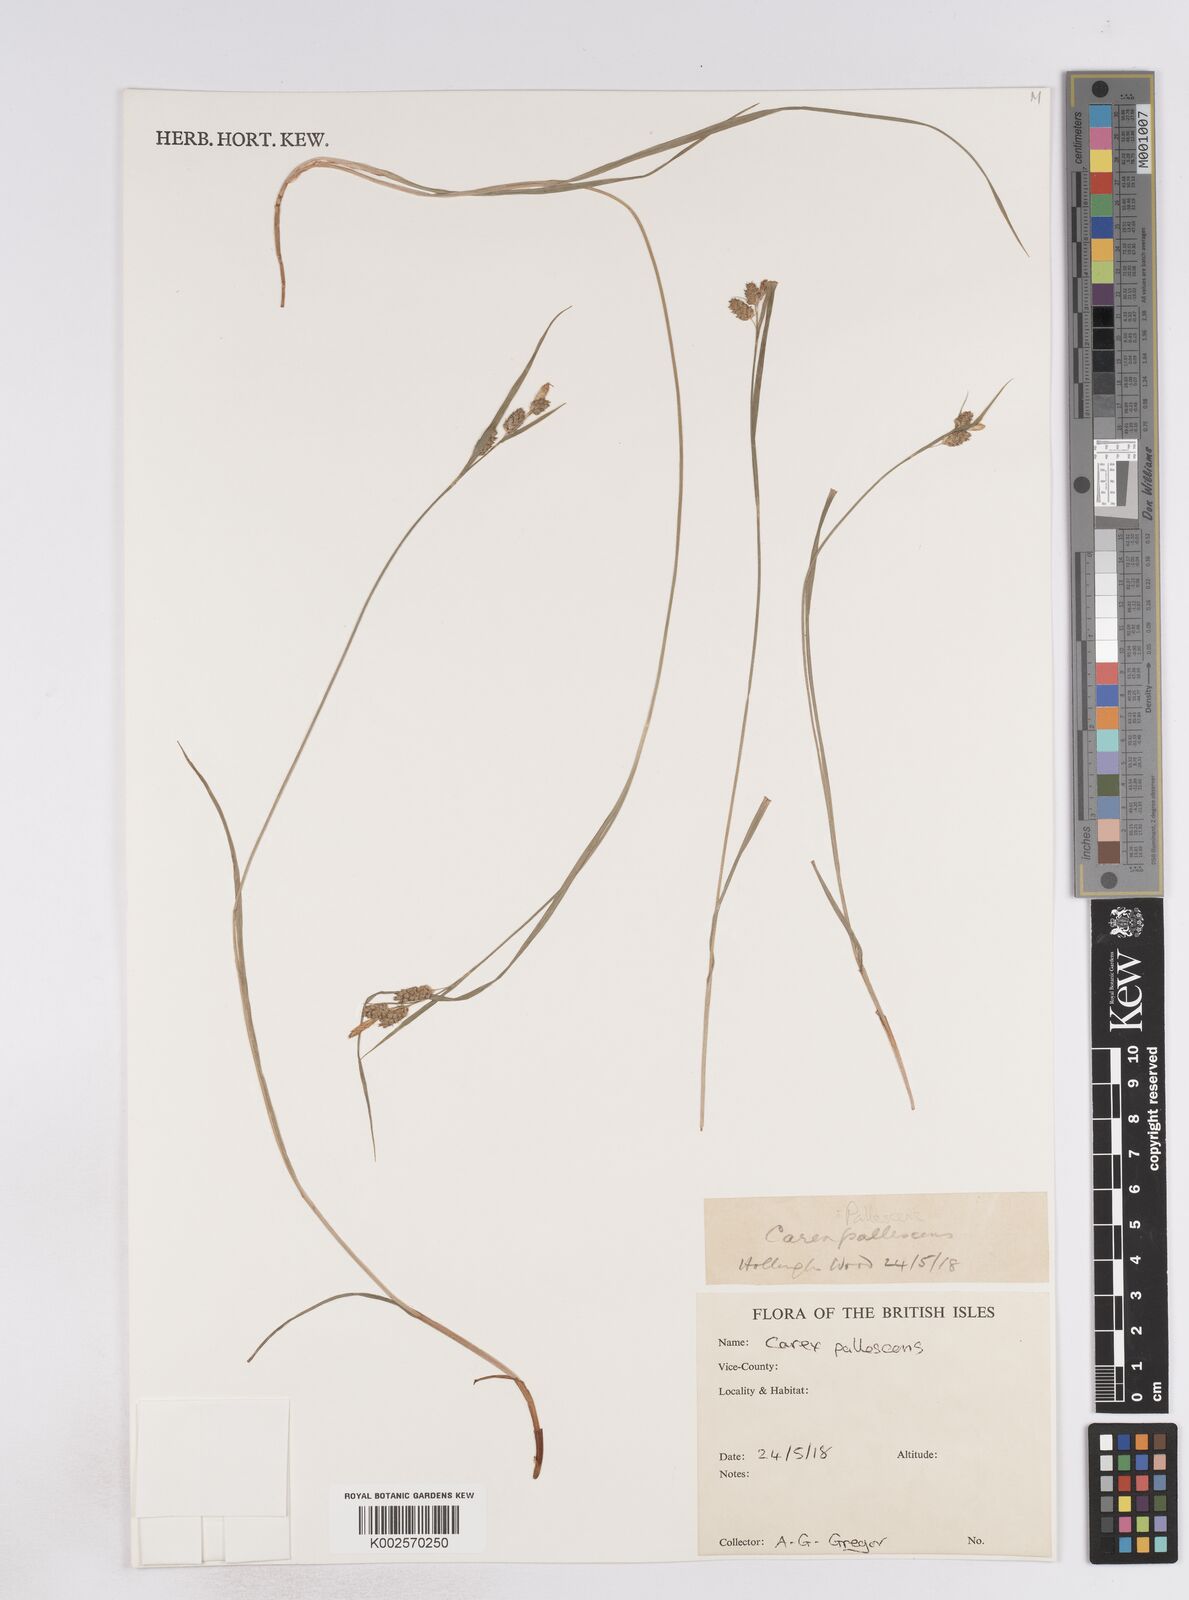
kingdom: Plantae
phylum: Tracheophyta
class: Liliopsida
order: Poales
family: Cyperaceae
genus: Carex
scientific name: Carex pallescens
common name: Pale sedge
